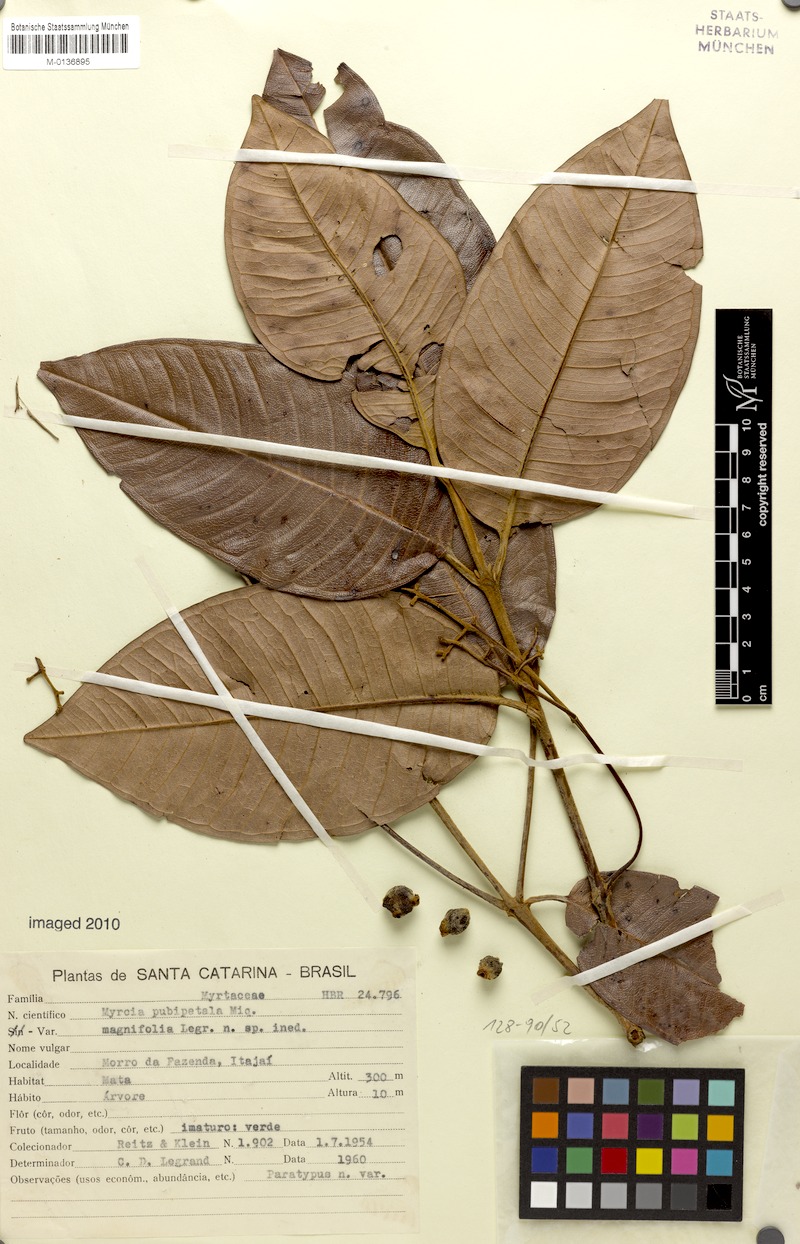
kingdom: Plantae
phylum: Tracheophyta
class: Magnoliopsida
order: Myrtales
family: Myrtaceae
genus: Myrcia
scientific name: Myrcia pubipetala
